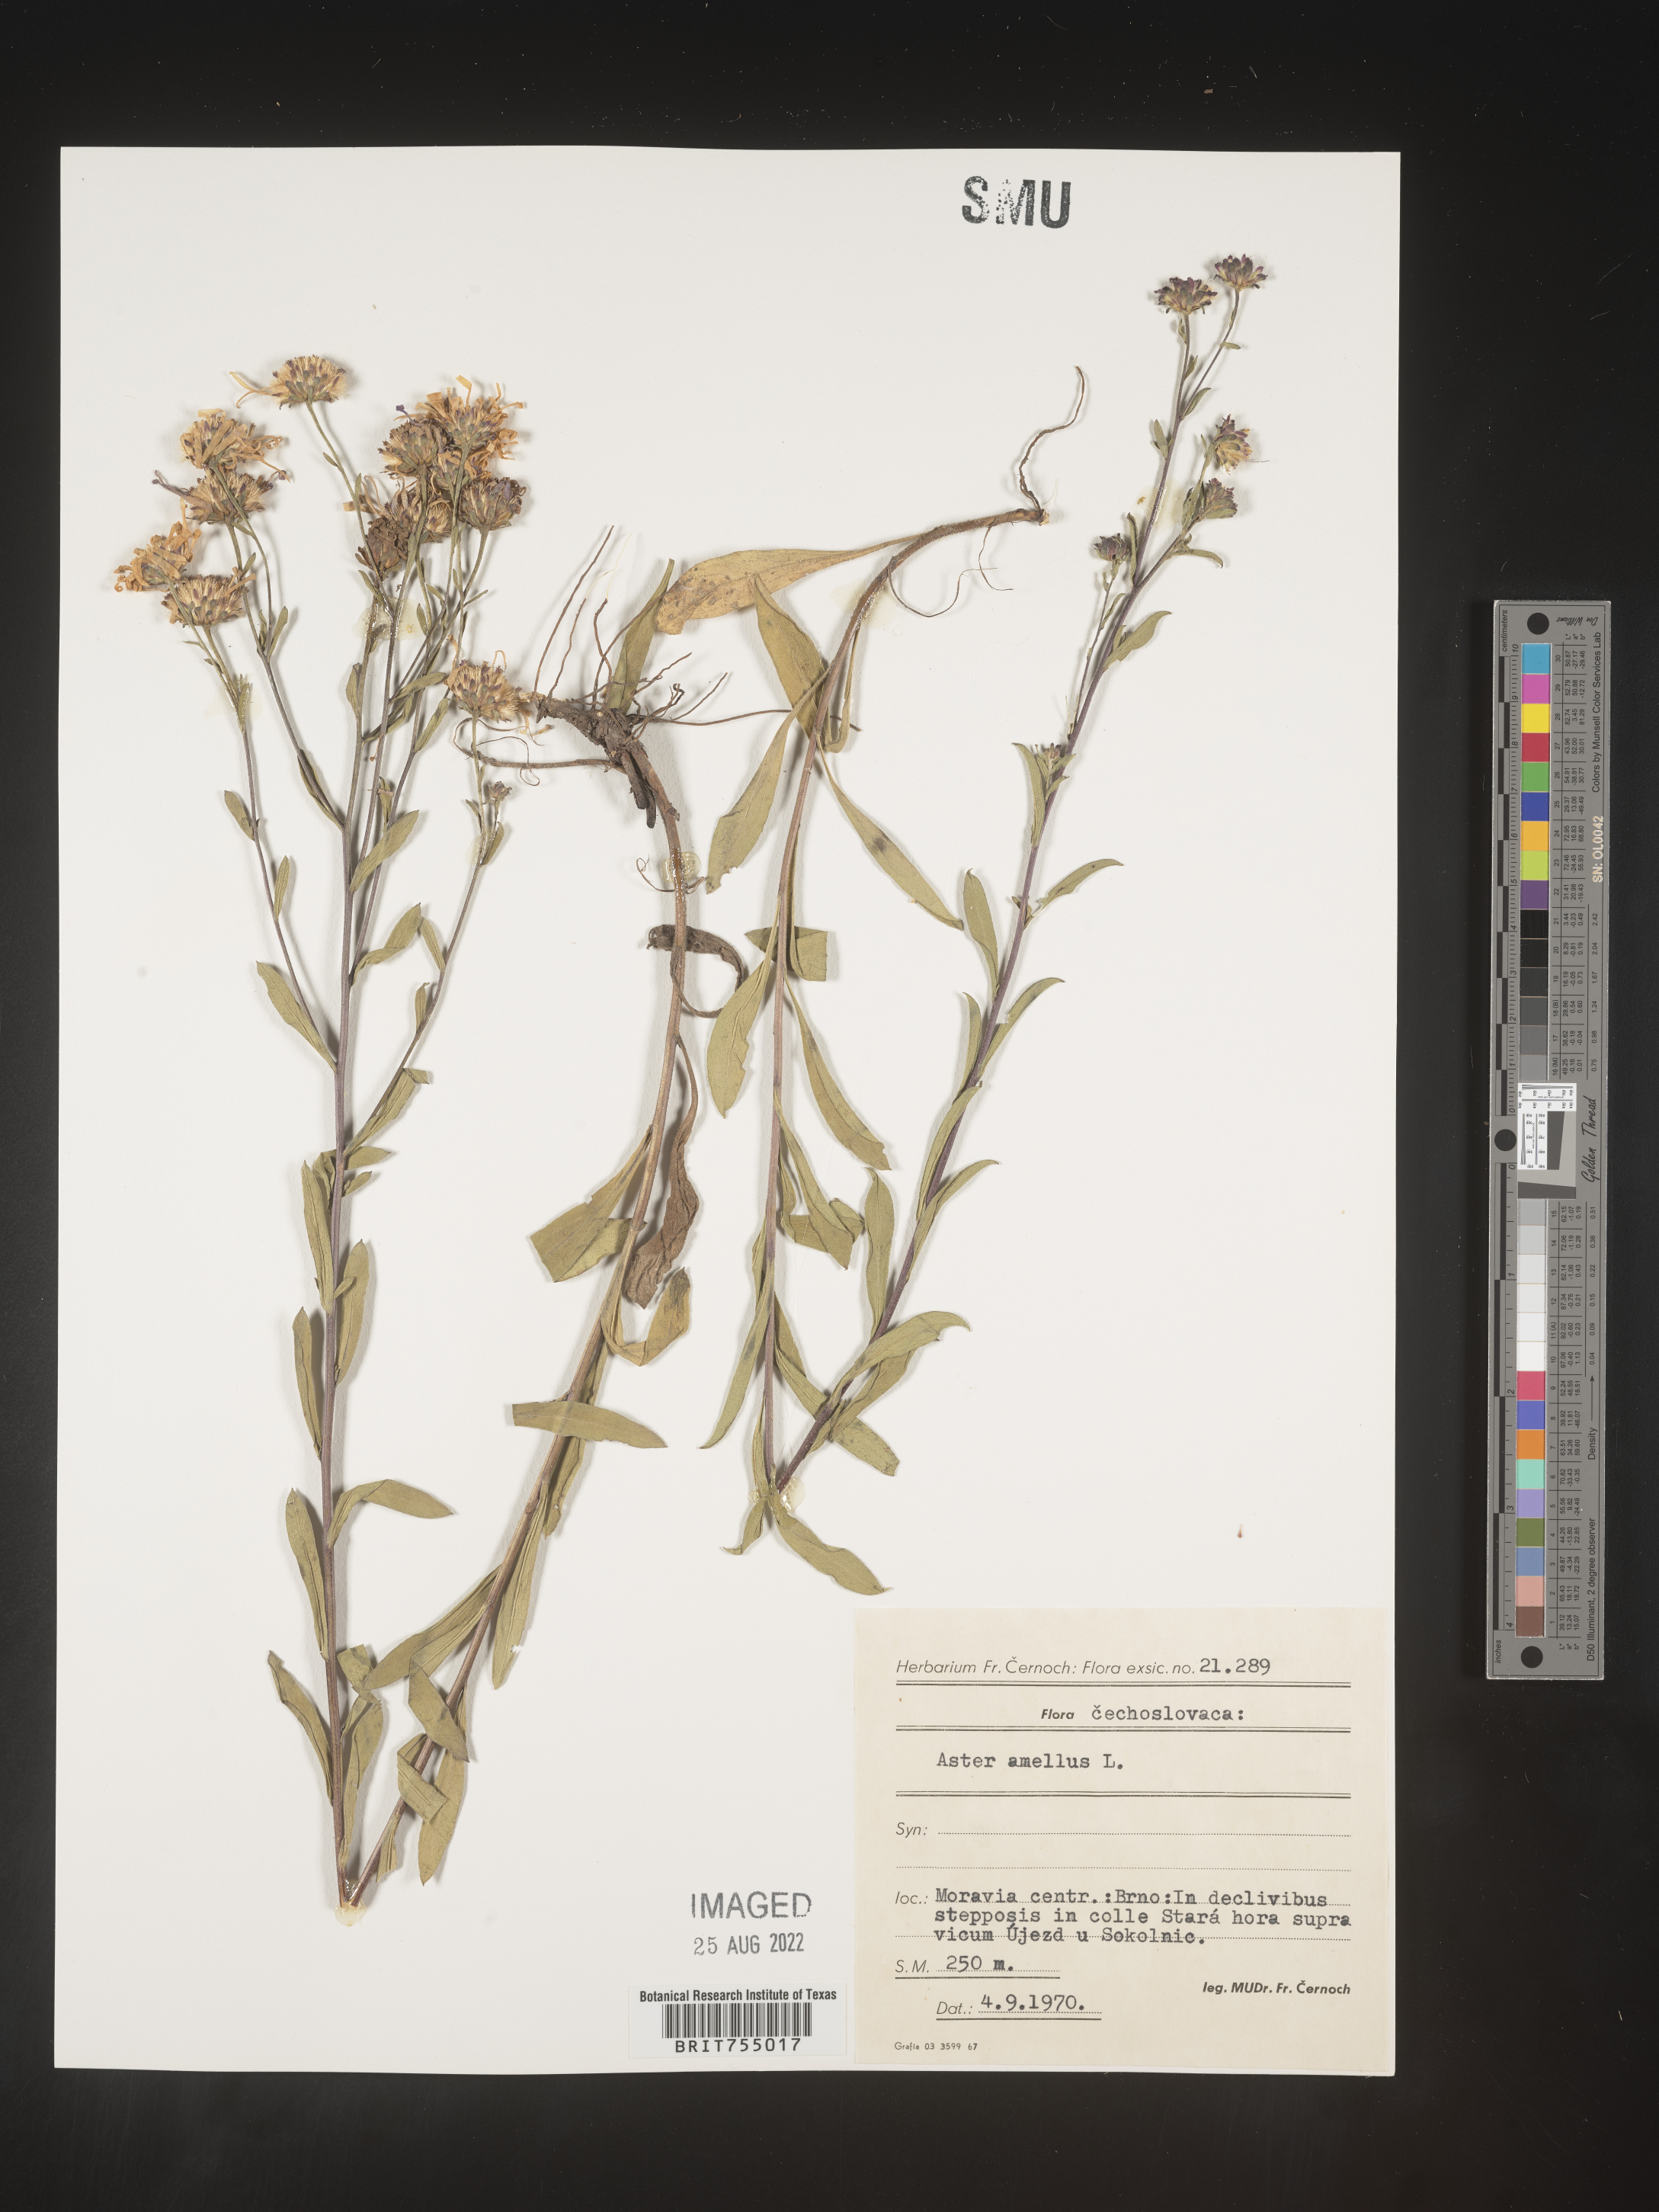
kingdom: Plantae
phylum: Tracheophyta
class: Magnoliopsida
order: Asterales
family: Asteraceae
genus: Symphyotrichum
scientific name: Symphyotrichum
